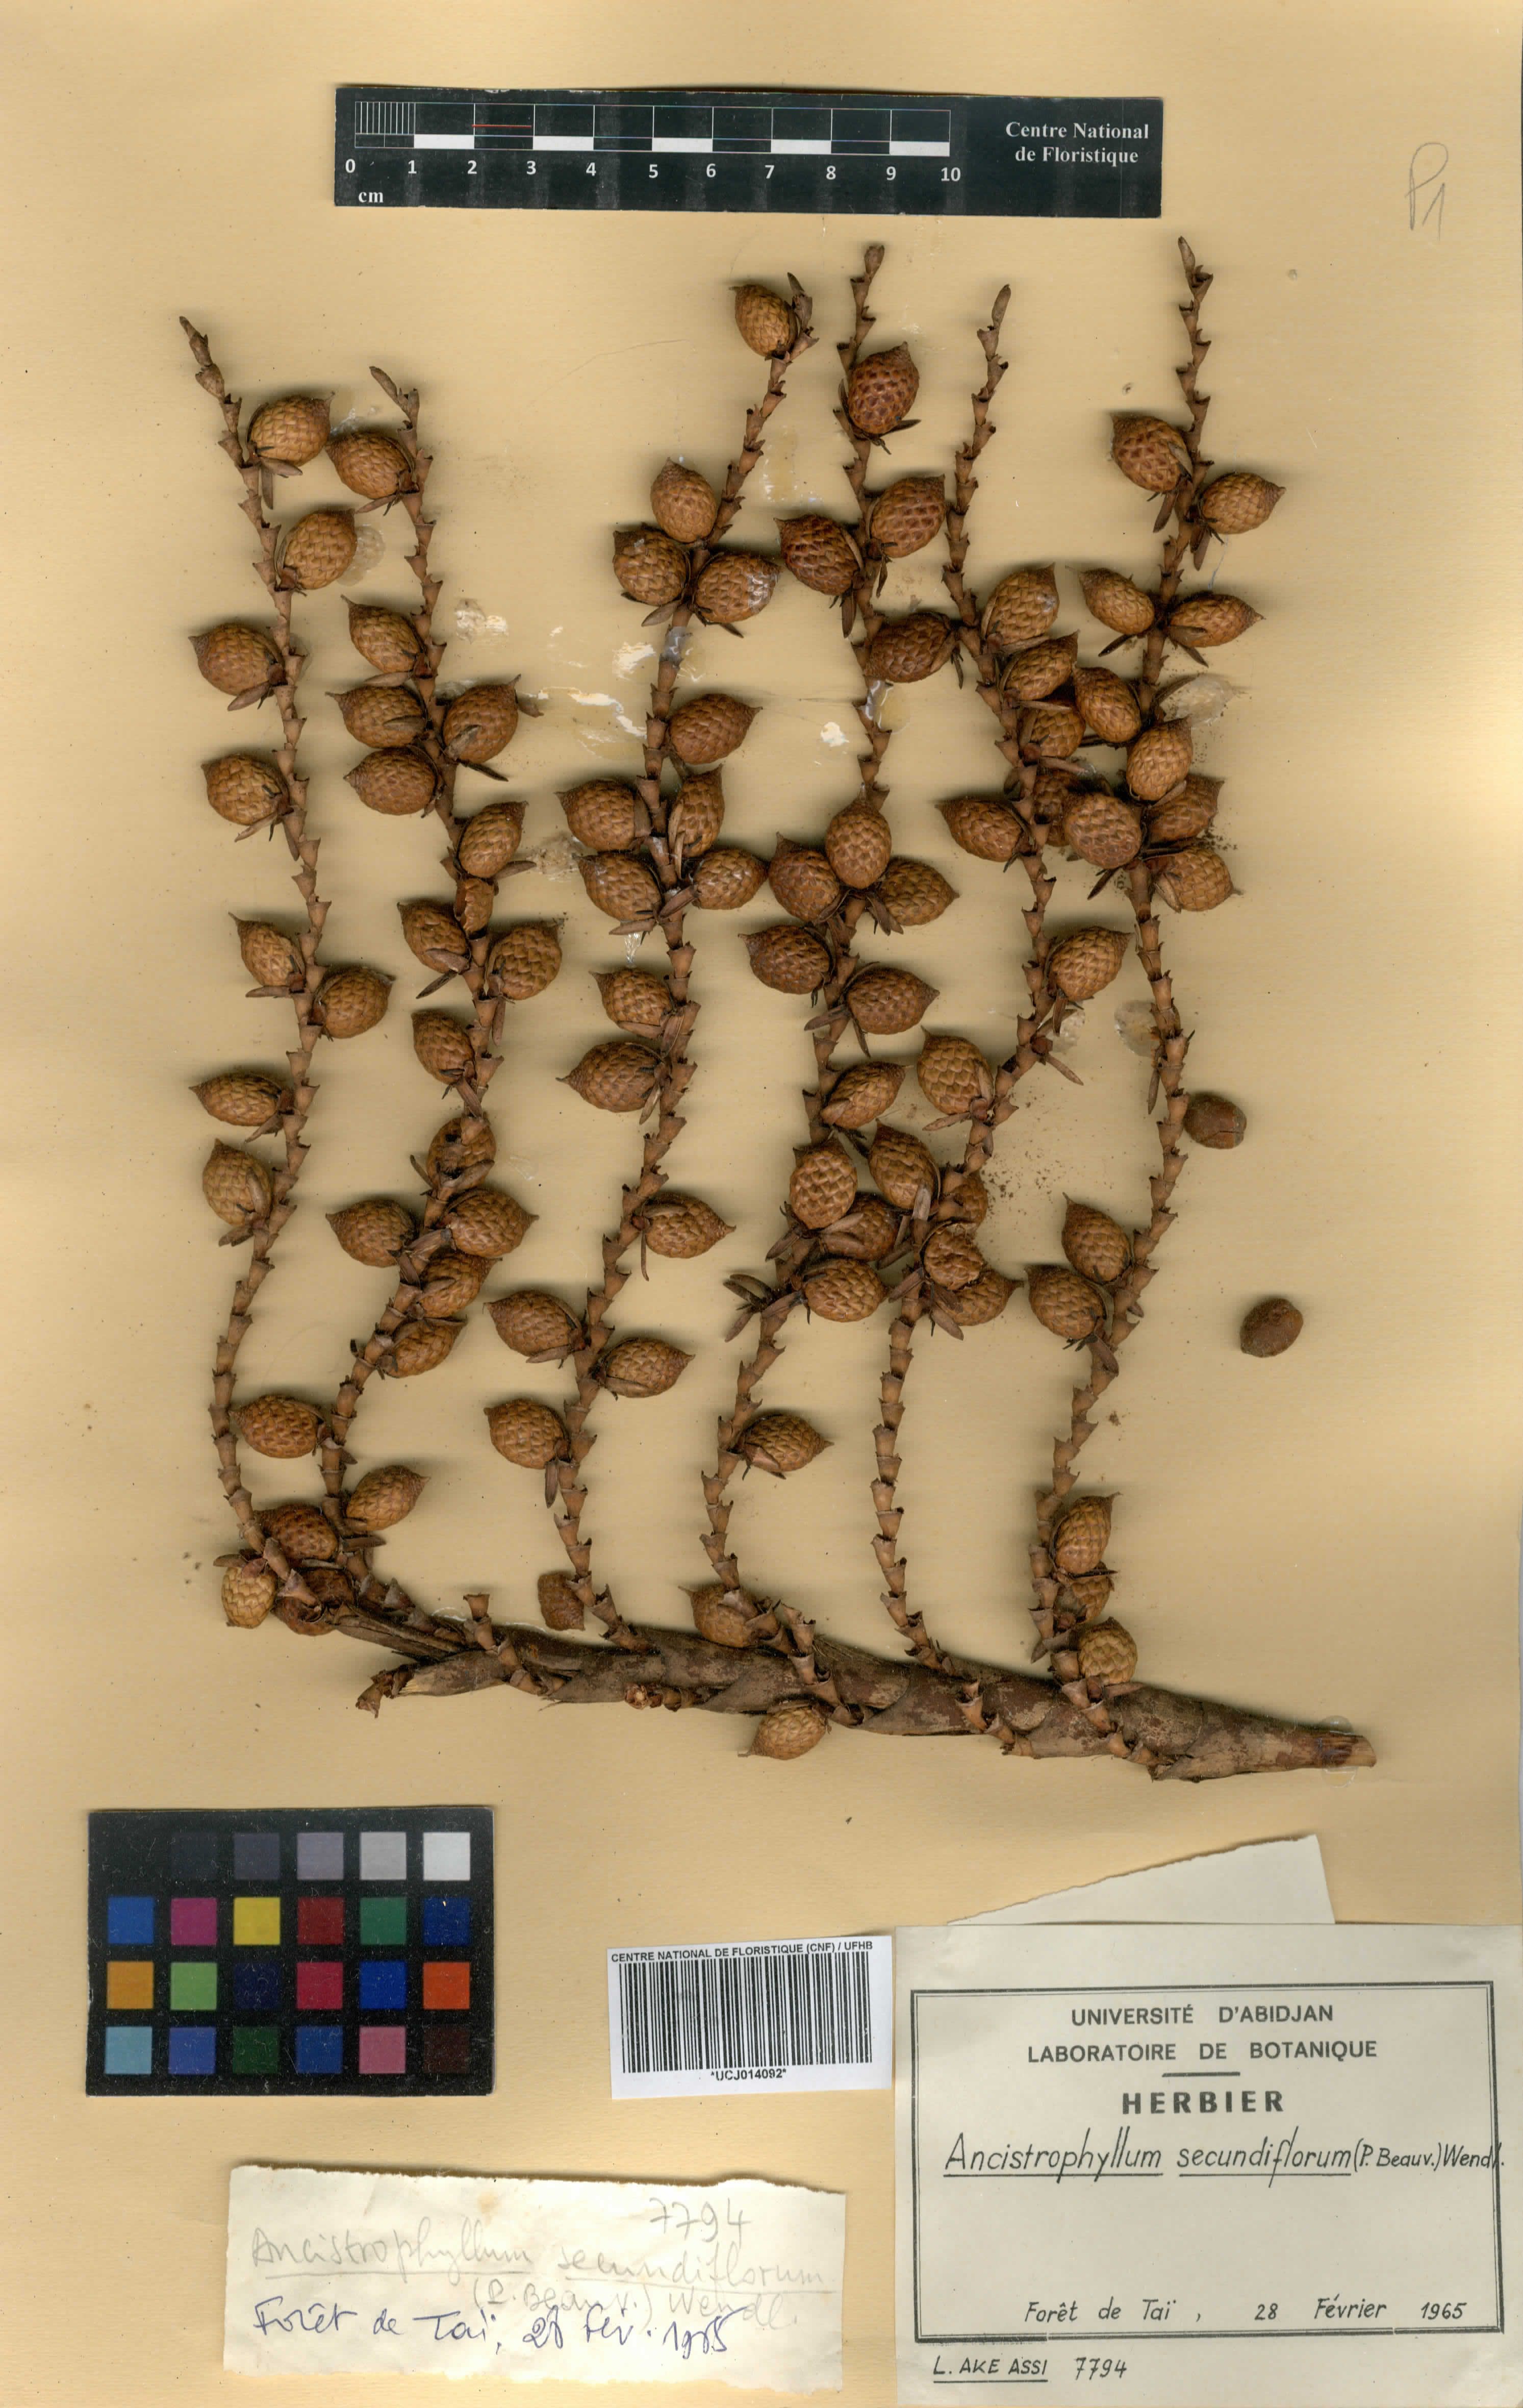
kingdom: Plantae
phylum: Tracheophyta
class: Liliopsida
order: Arecales
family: Arecaceae
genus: Laccosperma
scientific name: Laccosperma secundiflorum
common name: Rattan
